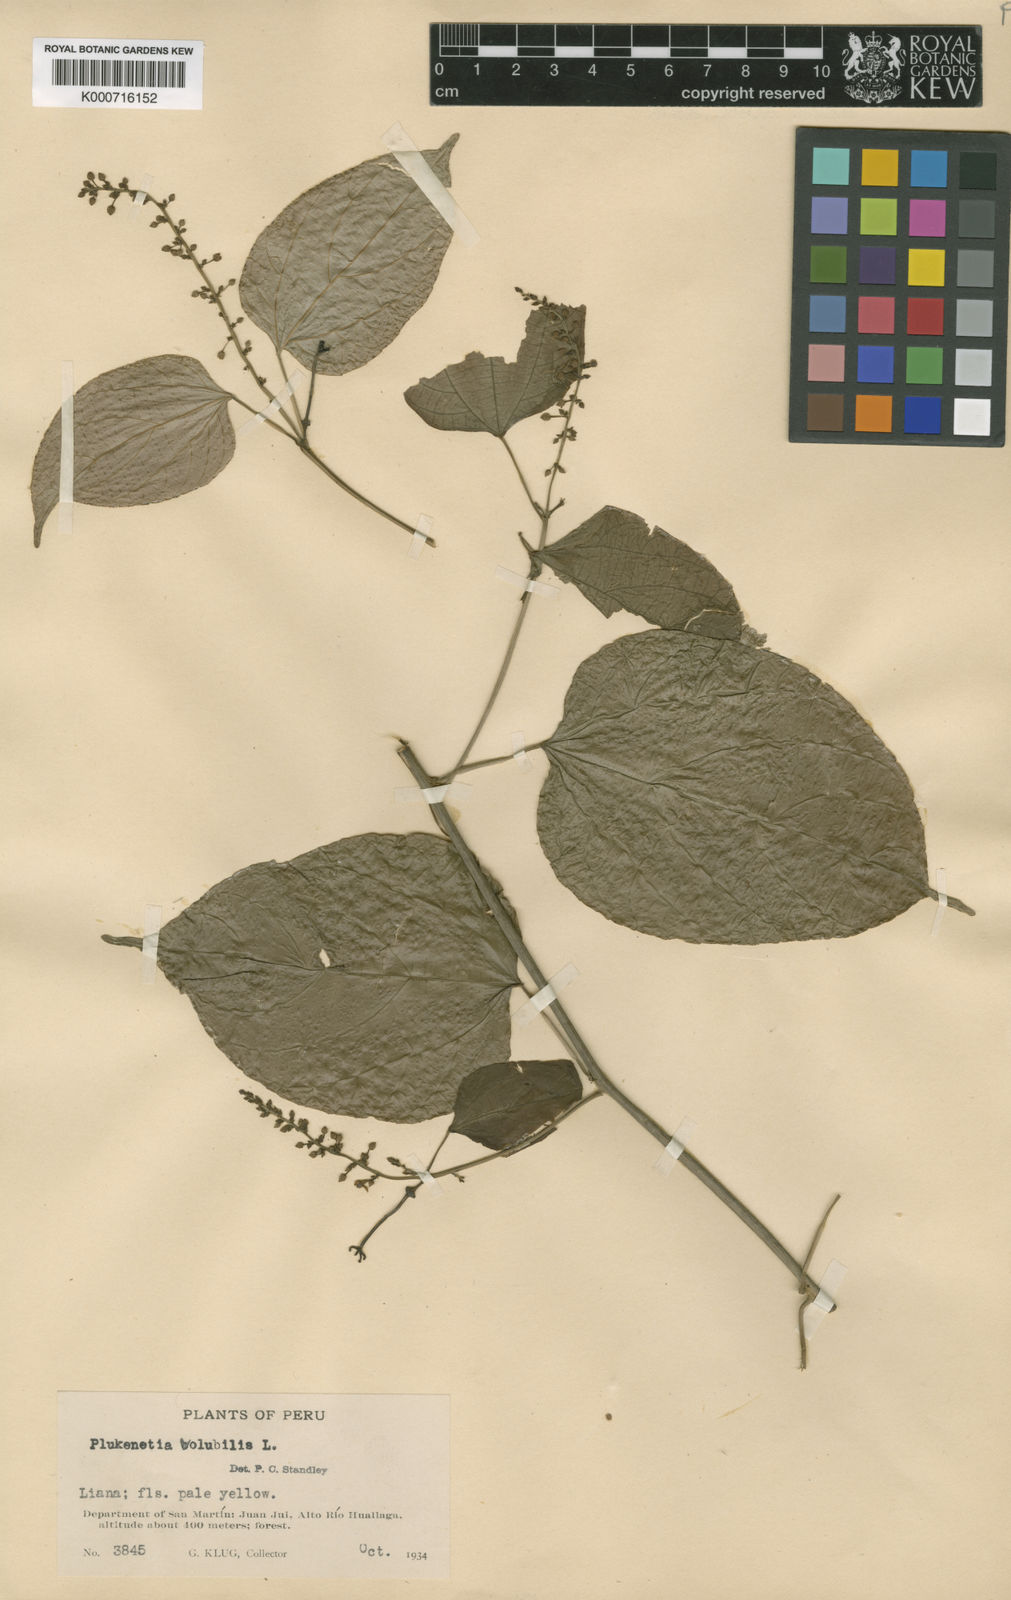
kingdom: Plantae
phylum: Tracheophyta
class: Magnoliopsida
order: Malpighiales
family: Euphorbiaceae
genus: Plukenetia
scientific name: Plukenetia volubilis
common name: Inca-peanut
